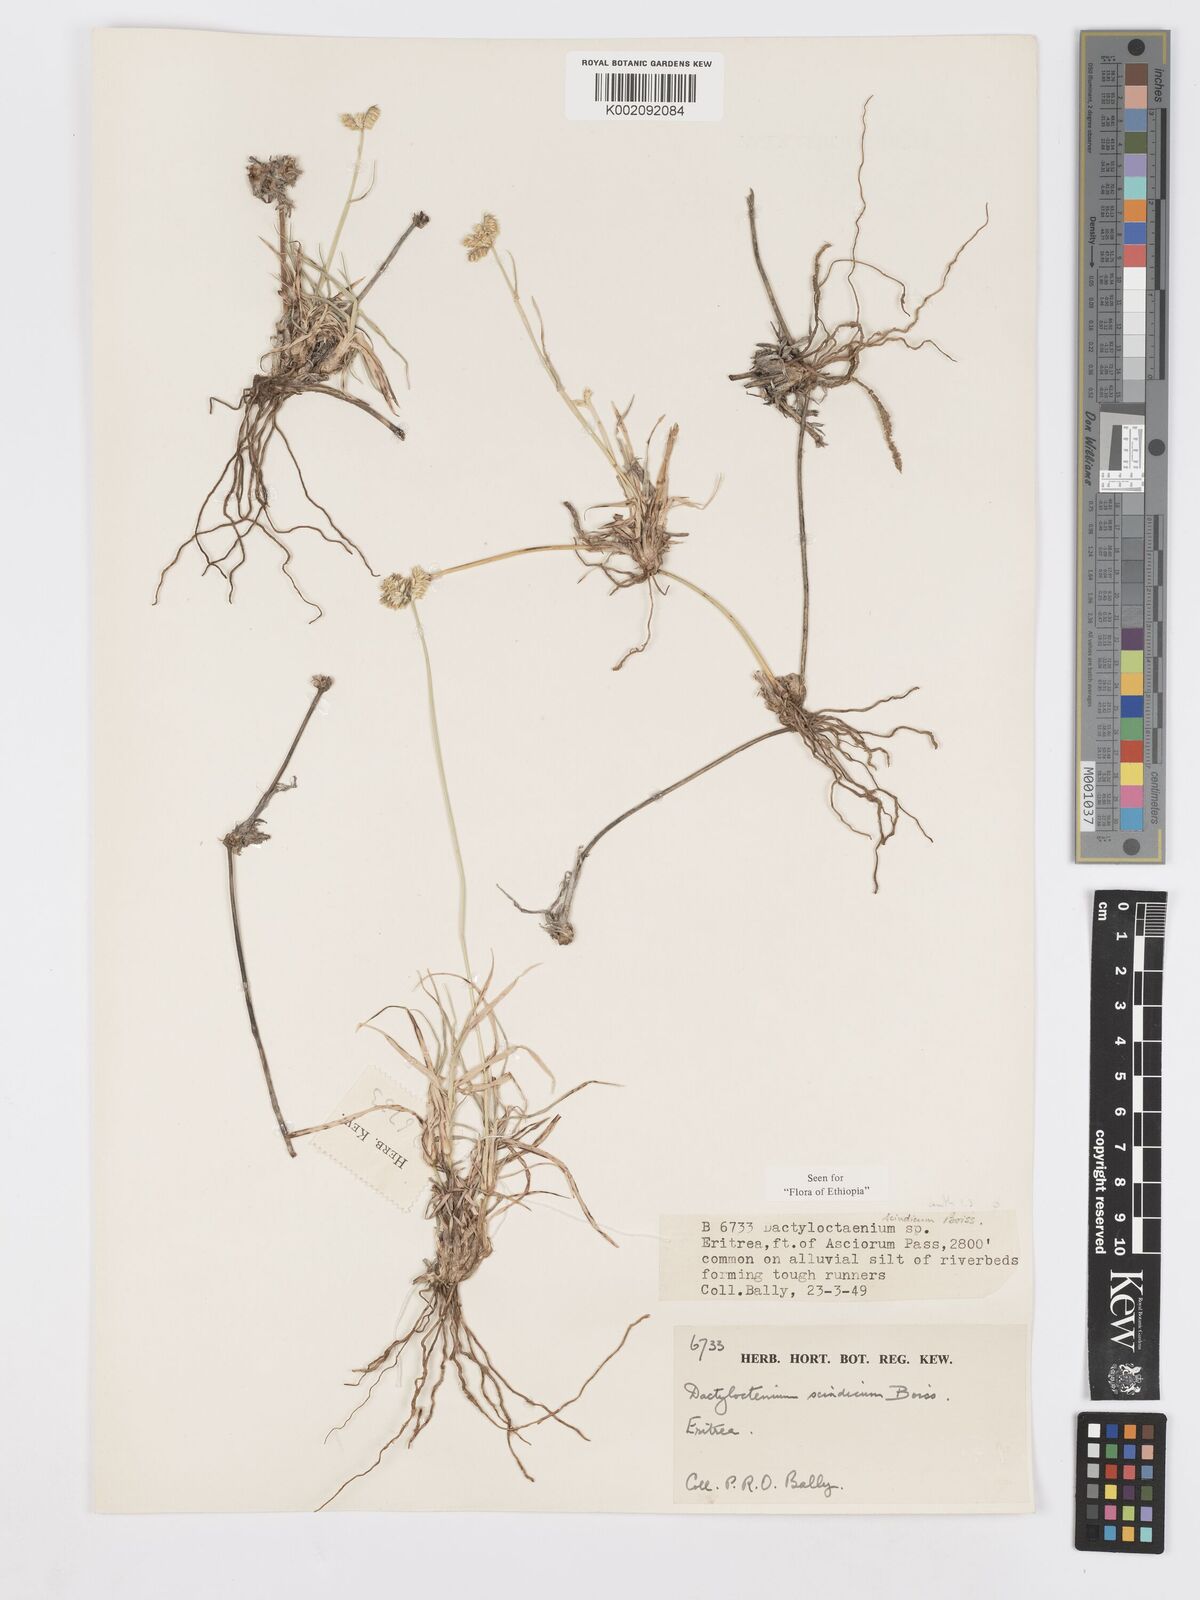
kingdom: Plantae
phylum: Tracheophyta
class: Liliopsida
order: Poales
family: Poaceae
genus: Dactyloctenium
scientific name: Dactyloctenium scindicum
